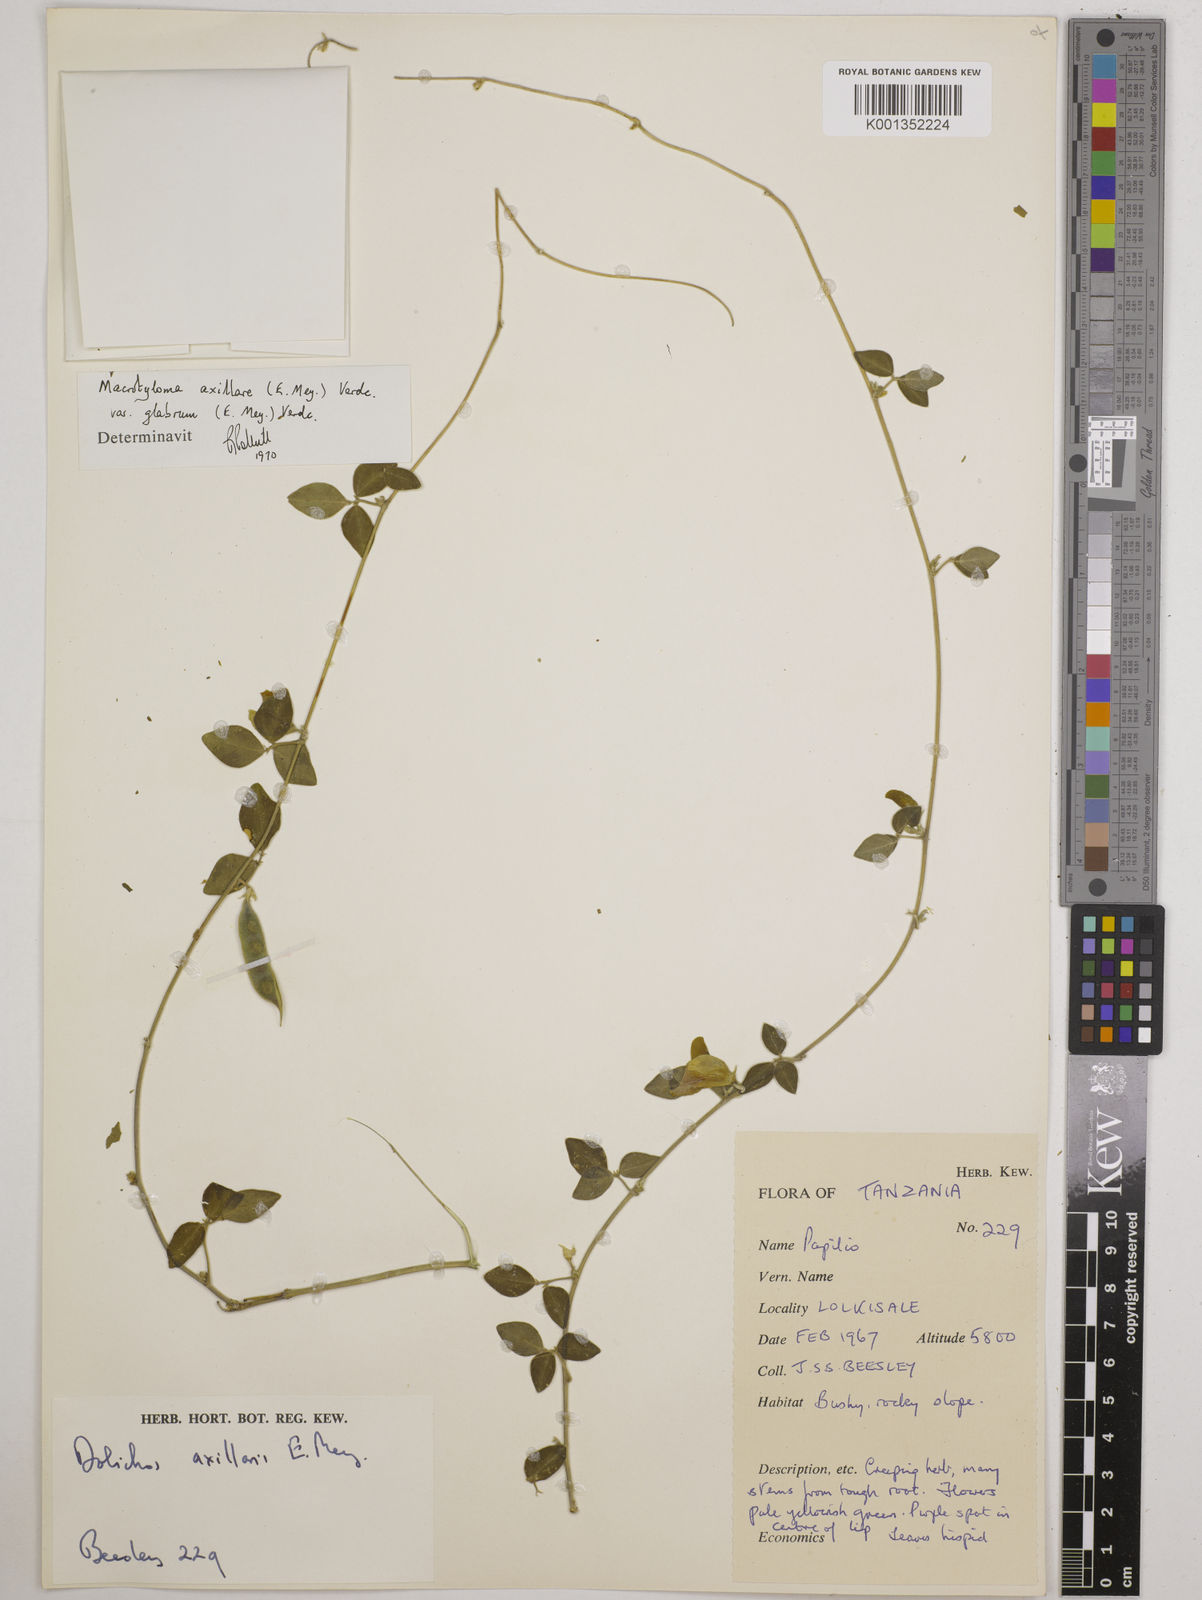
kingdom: Plantae
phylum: Tracheophyta
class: Magnoliopsida
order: Fabales
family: Fabaceae
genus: Macrotyloma
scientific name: Macrotyloma
